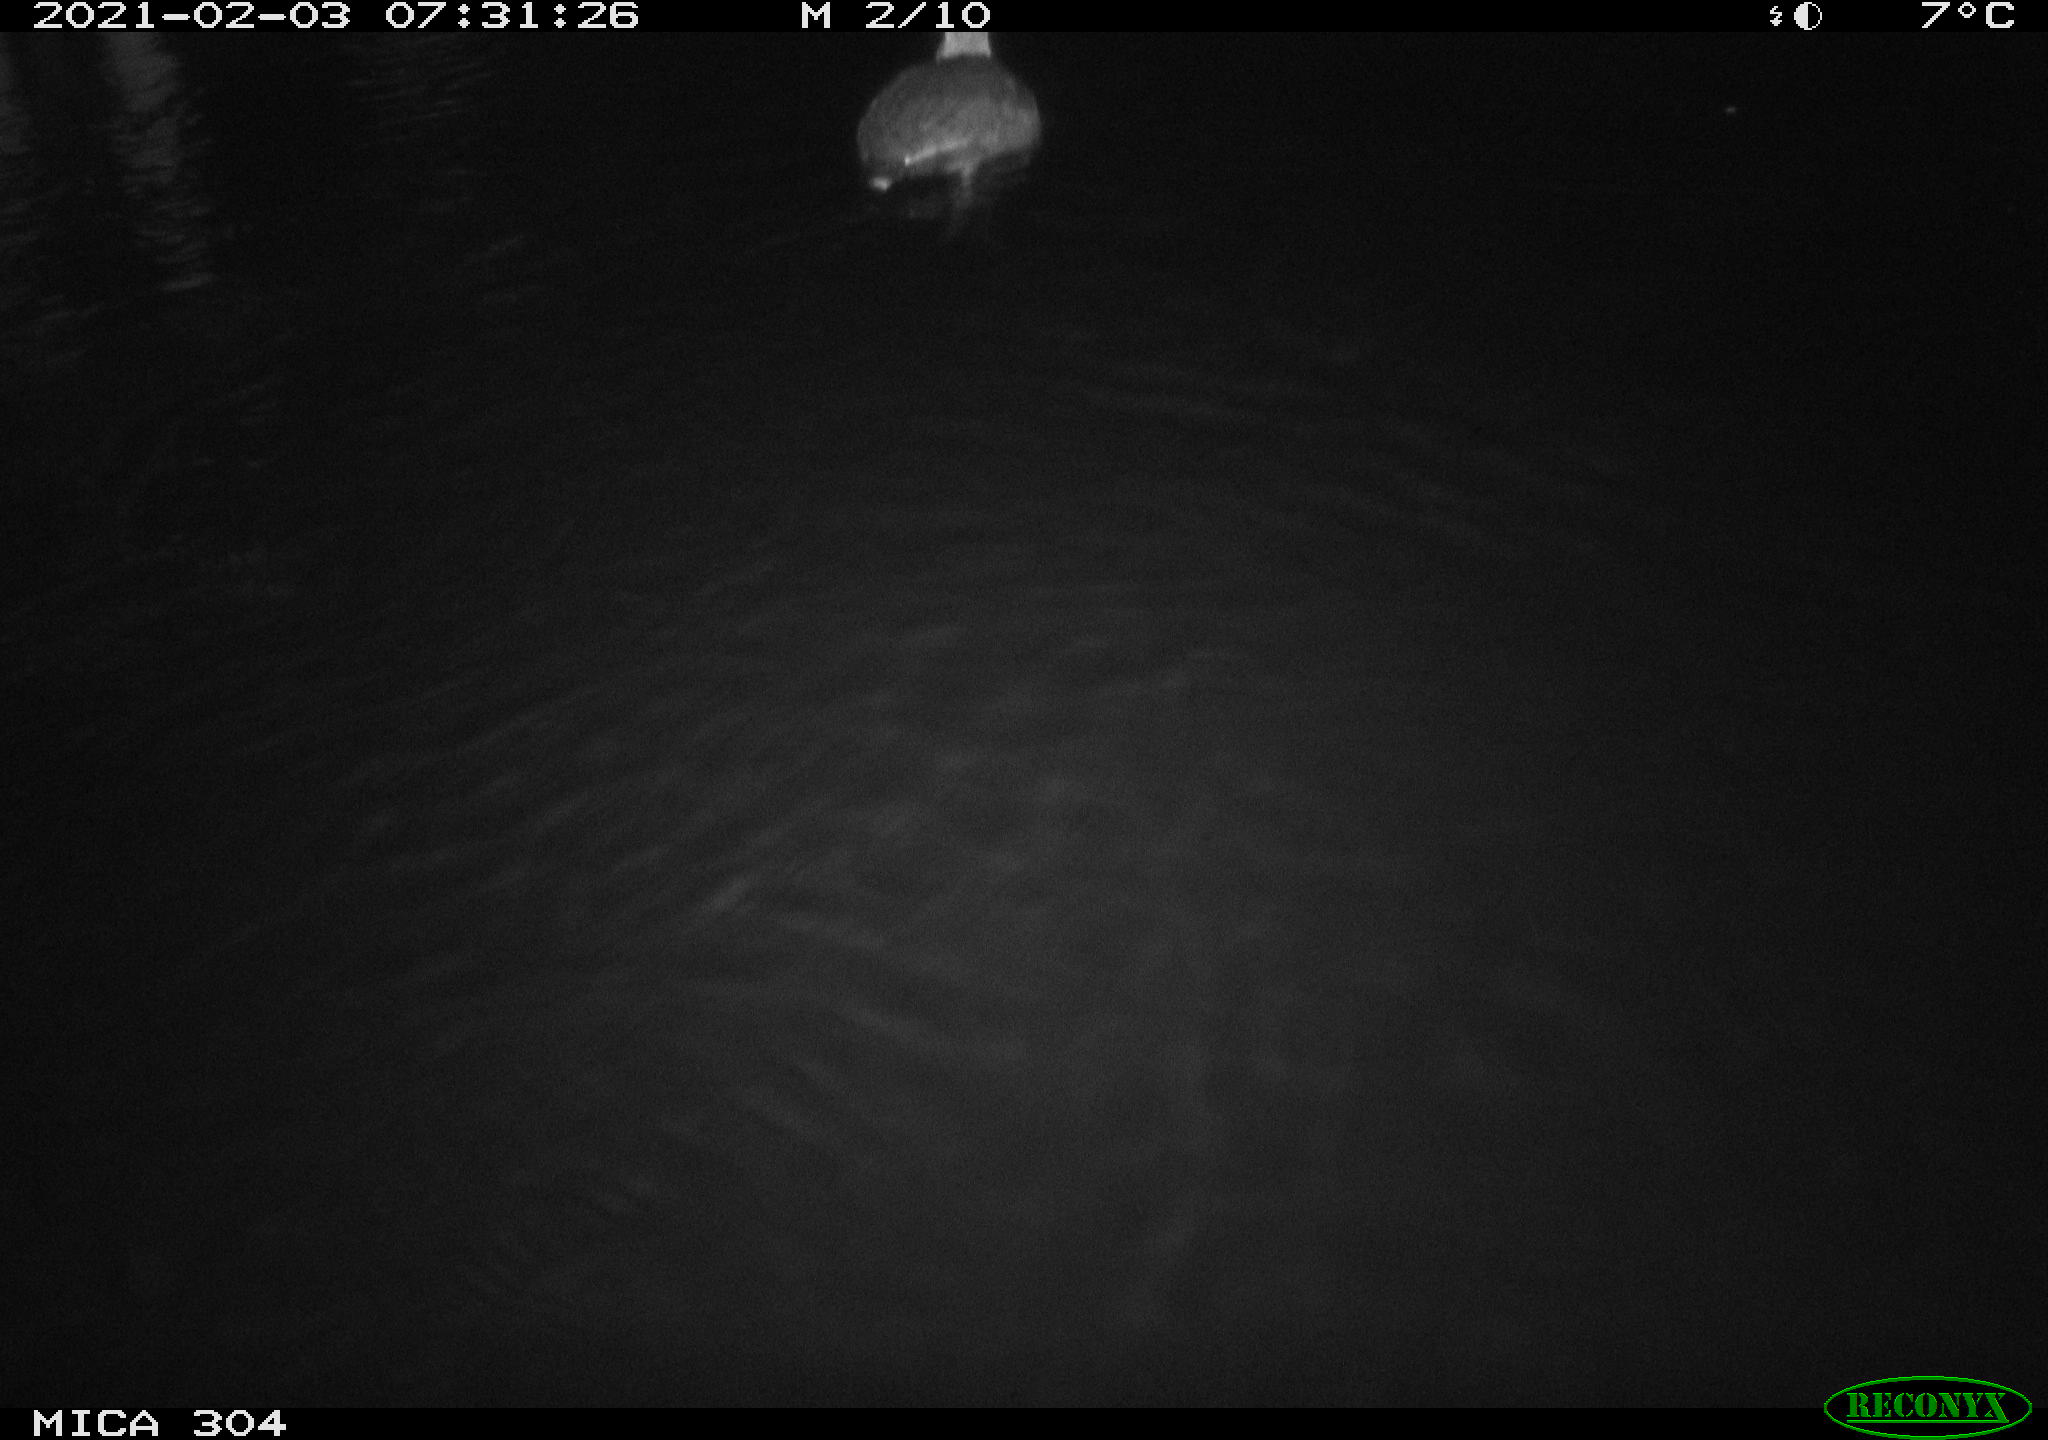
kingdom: Animalia
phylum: Chordata
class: Aves
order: Gruiformes
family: Rallidae
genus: Fulica
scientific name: Fulica atra
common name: Eurasian coot
